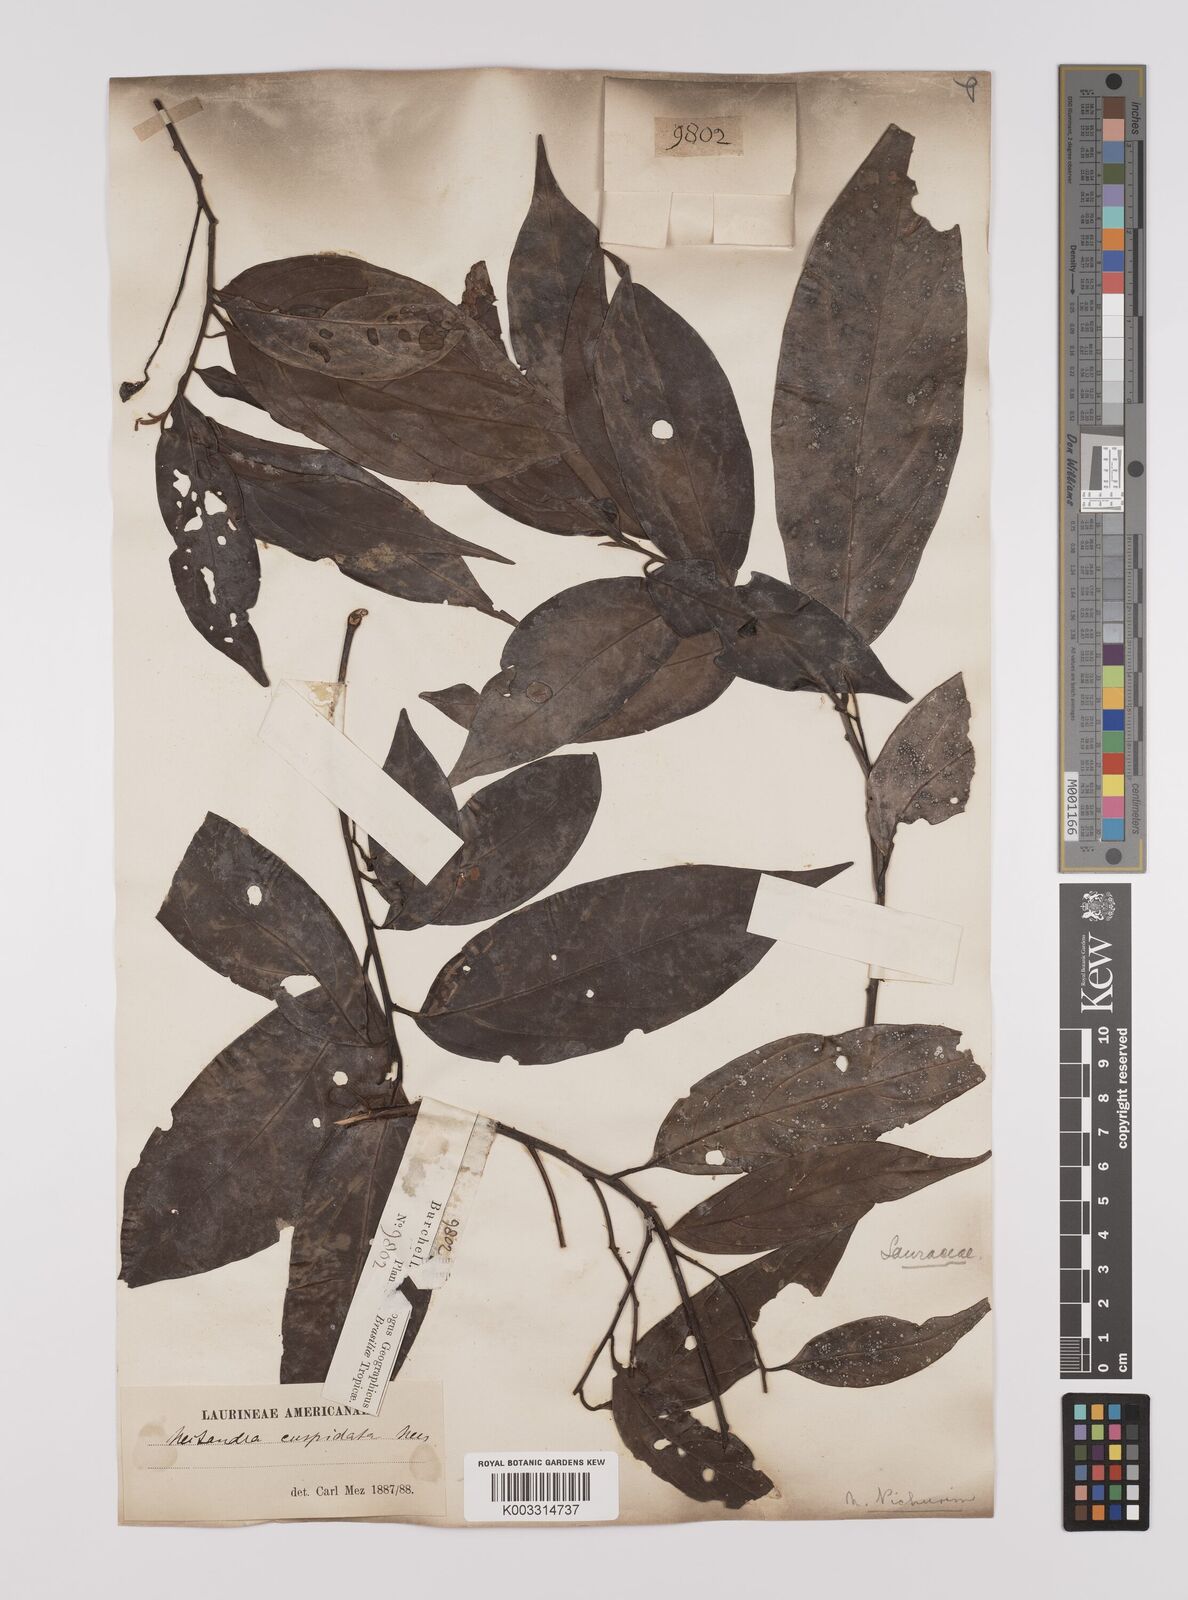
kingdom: Plantae
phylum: Tracheophyta
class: Magnoliopsida
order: Laurales
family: Lauraceae
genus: Nectandra
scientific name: Nectandra cuspidata
